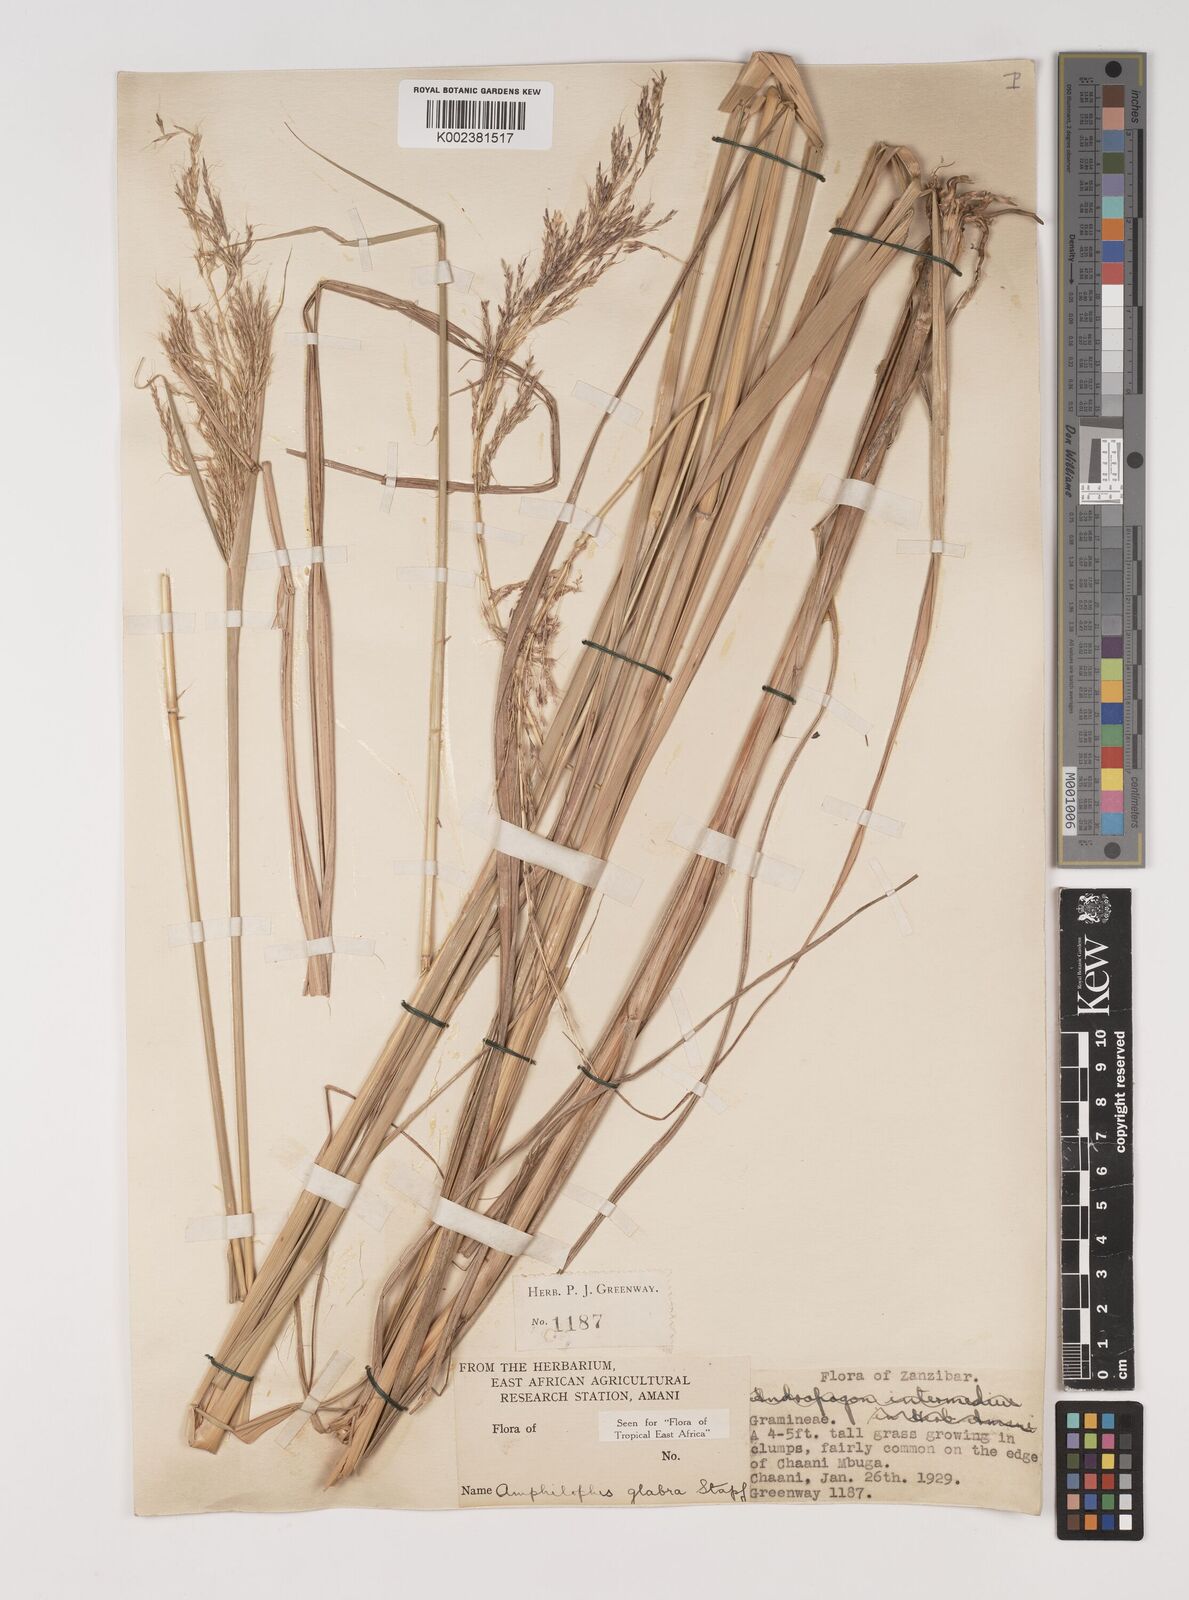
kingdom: Plantae
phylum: Tracheophyta
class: Liliopsida
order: Poales
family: Poaceae
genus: Bothriochloa
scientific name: Bothriochloa
